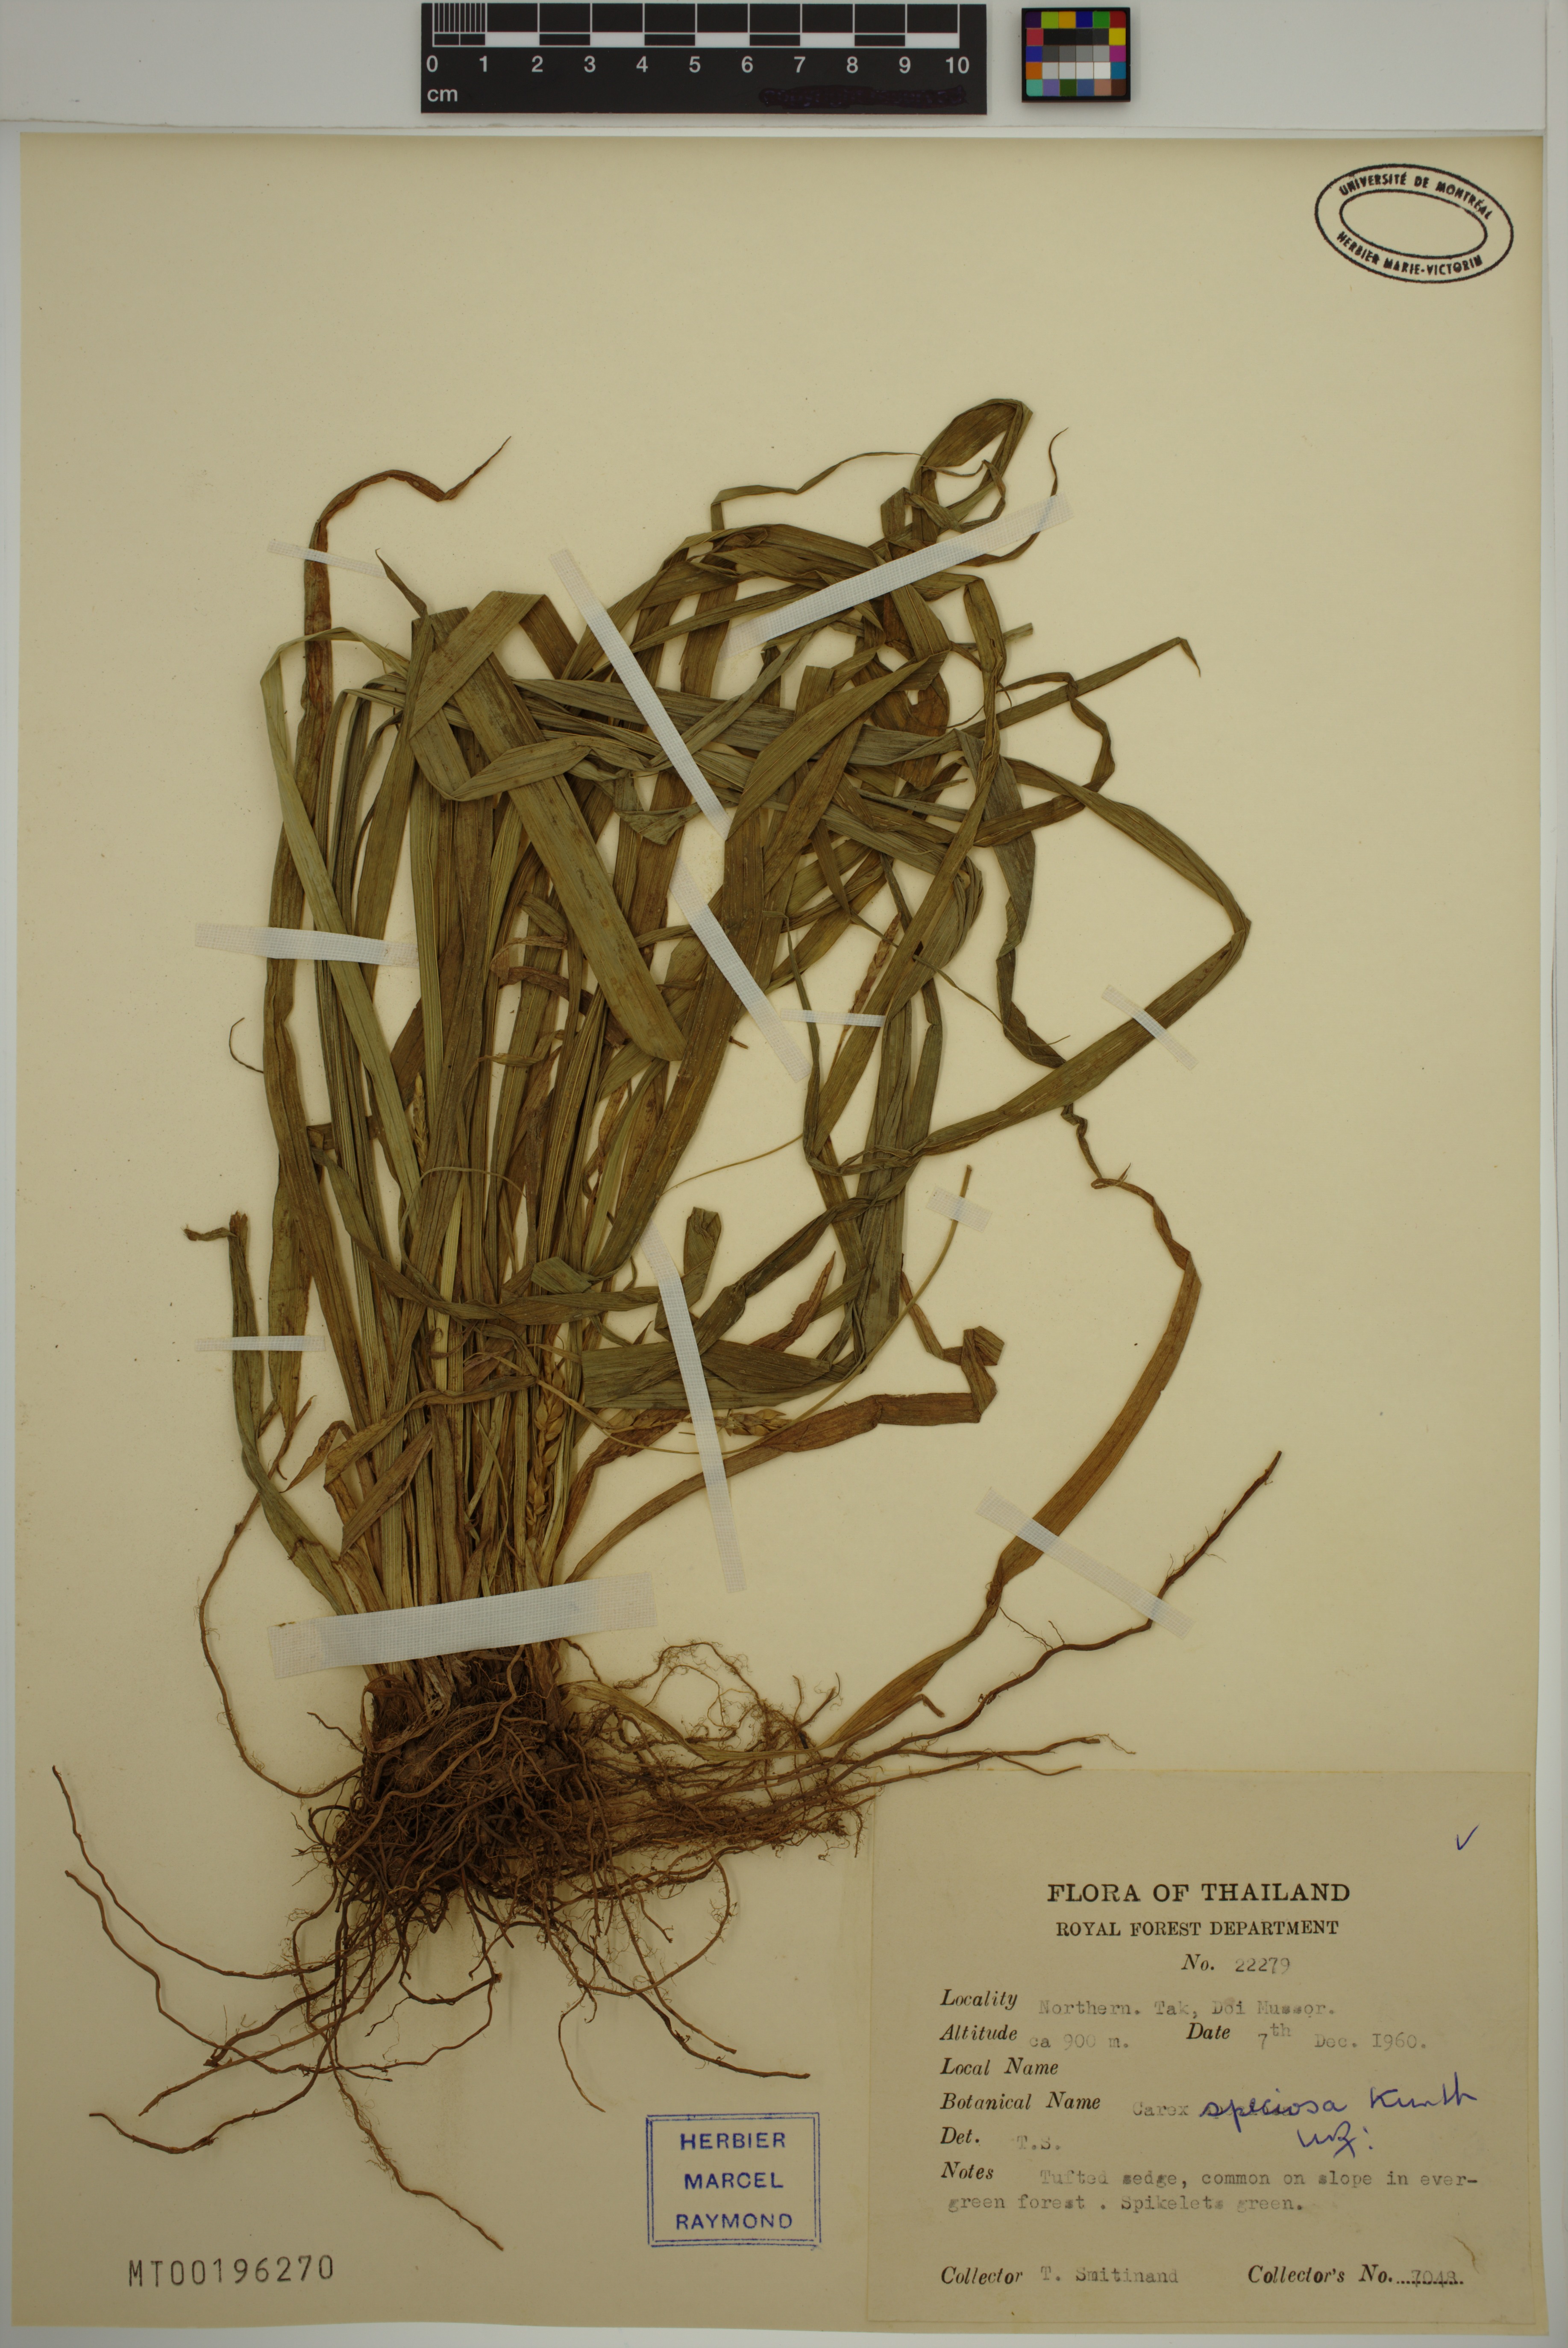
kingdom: Plantae
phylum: Tracheophyta
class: Liliopsida
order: Poales
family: Cyperaceae
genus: Carex
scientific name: Carex speciosa
